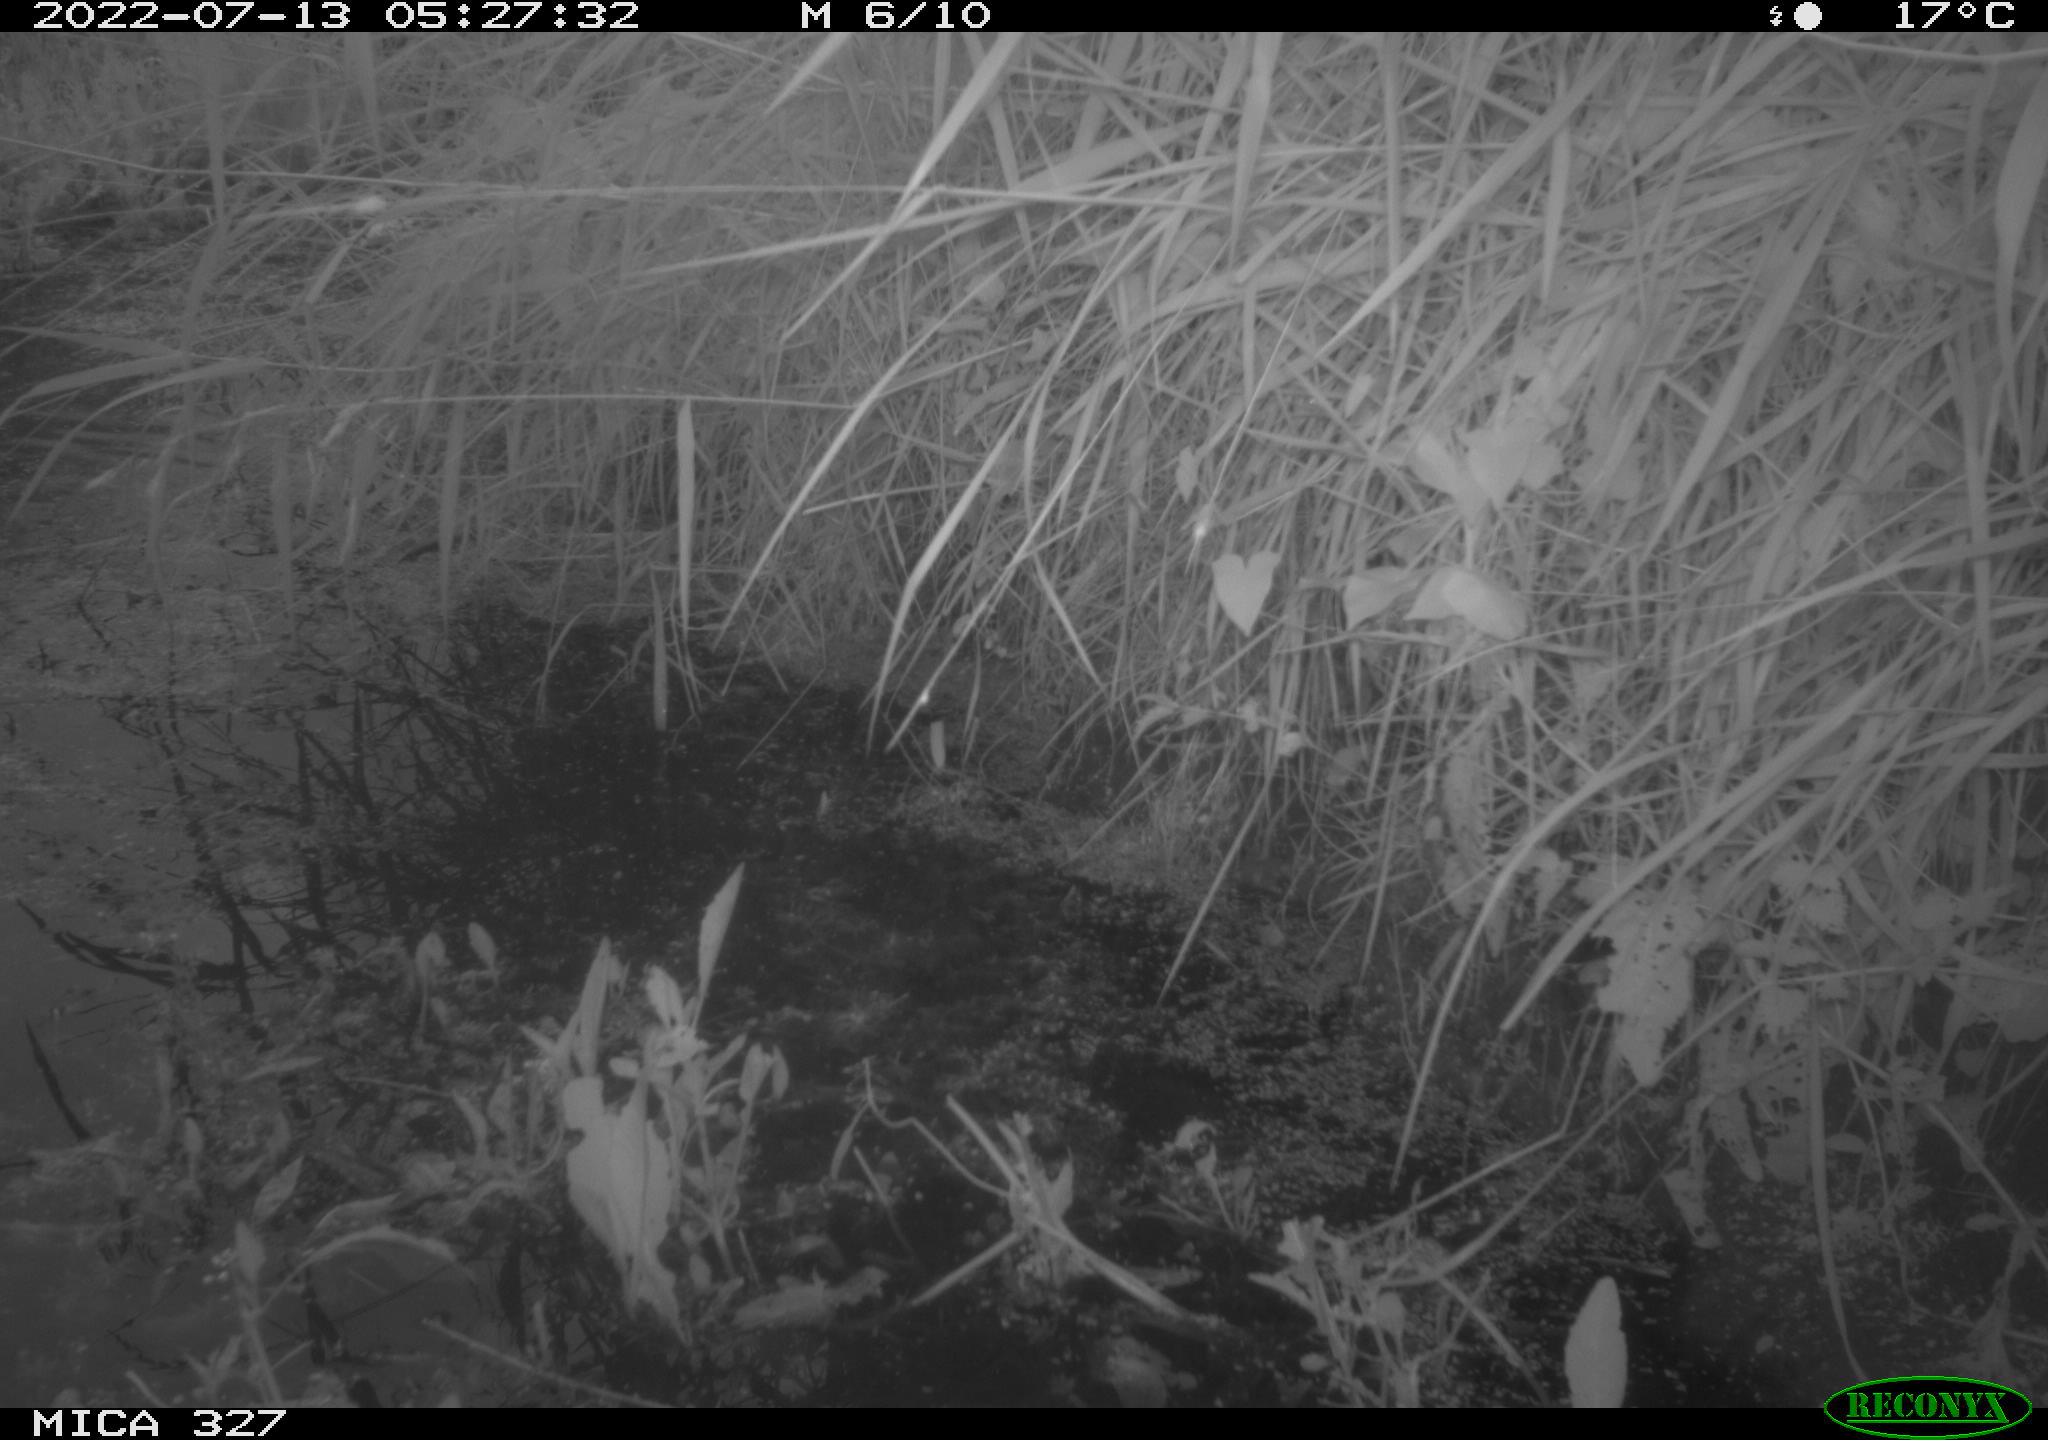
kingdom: Animalia
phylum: Chordata
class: Aves
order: Anseriformes
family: Anatidae
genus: Anas
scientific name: Anas
